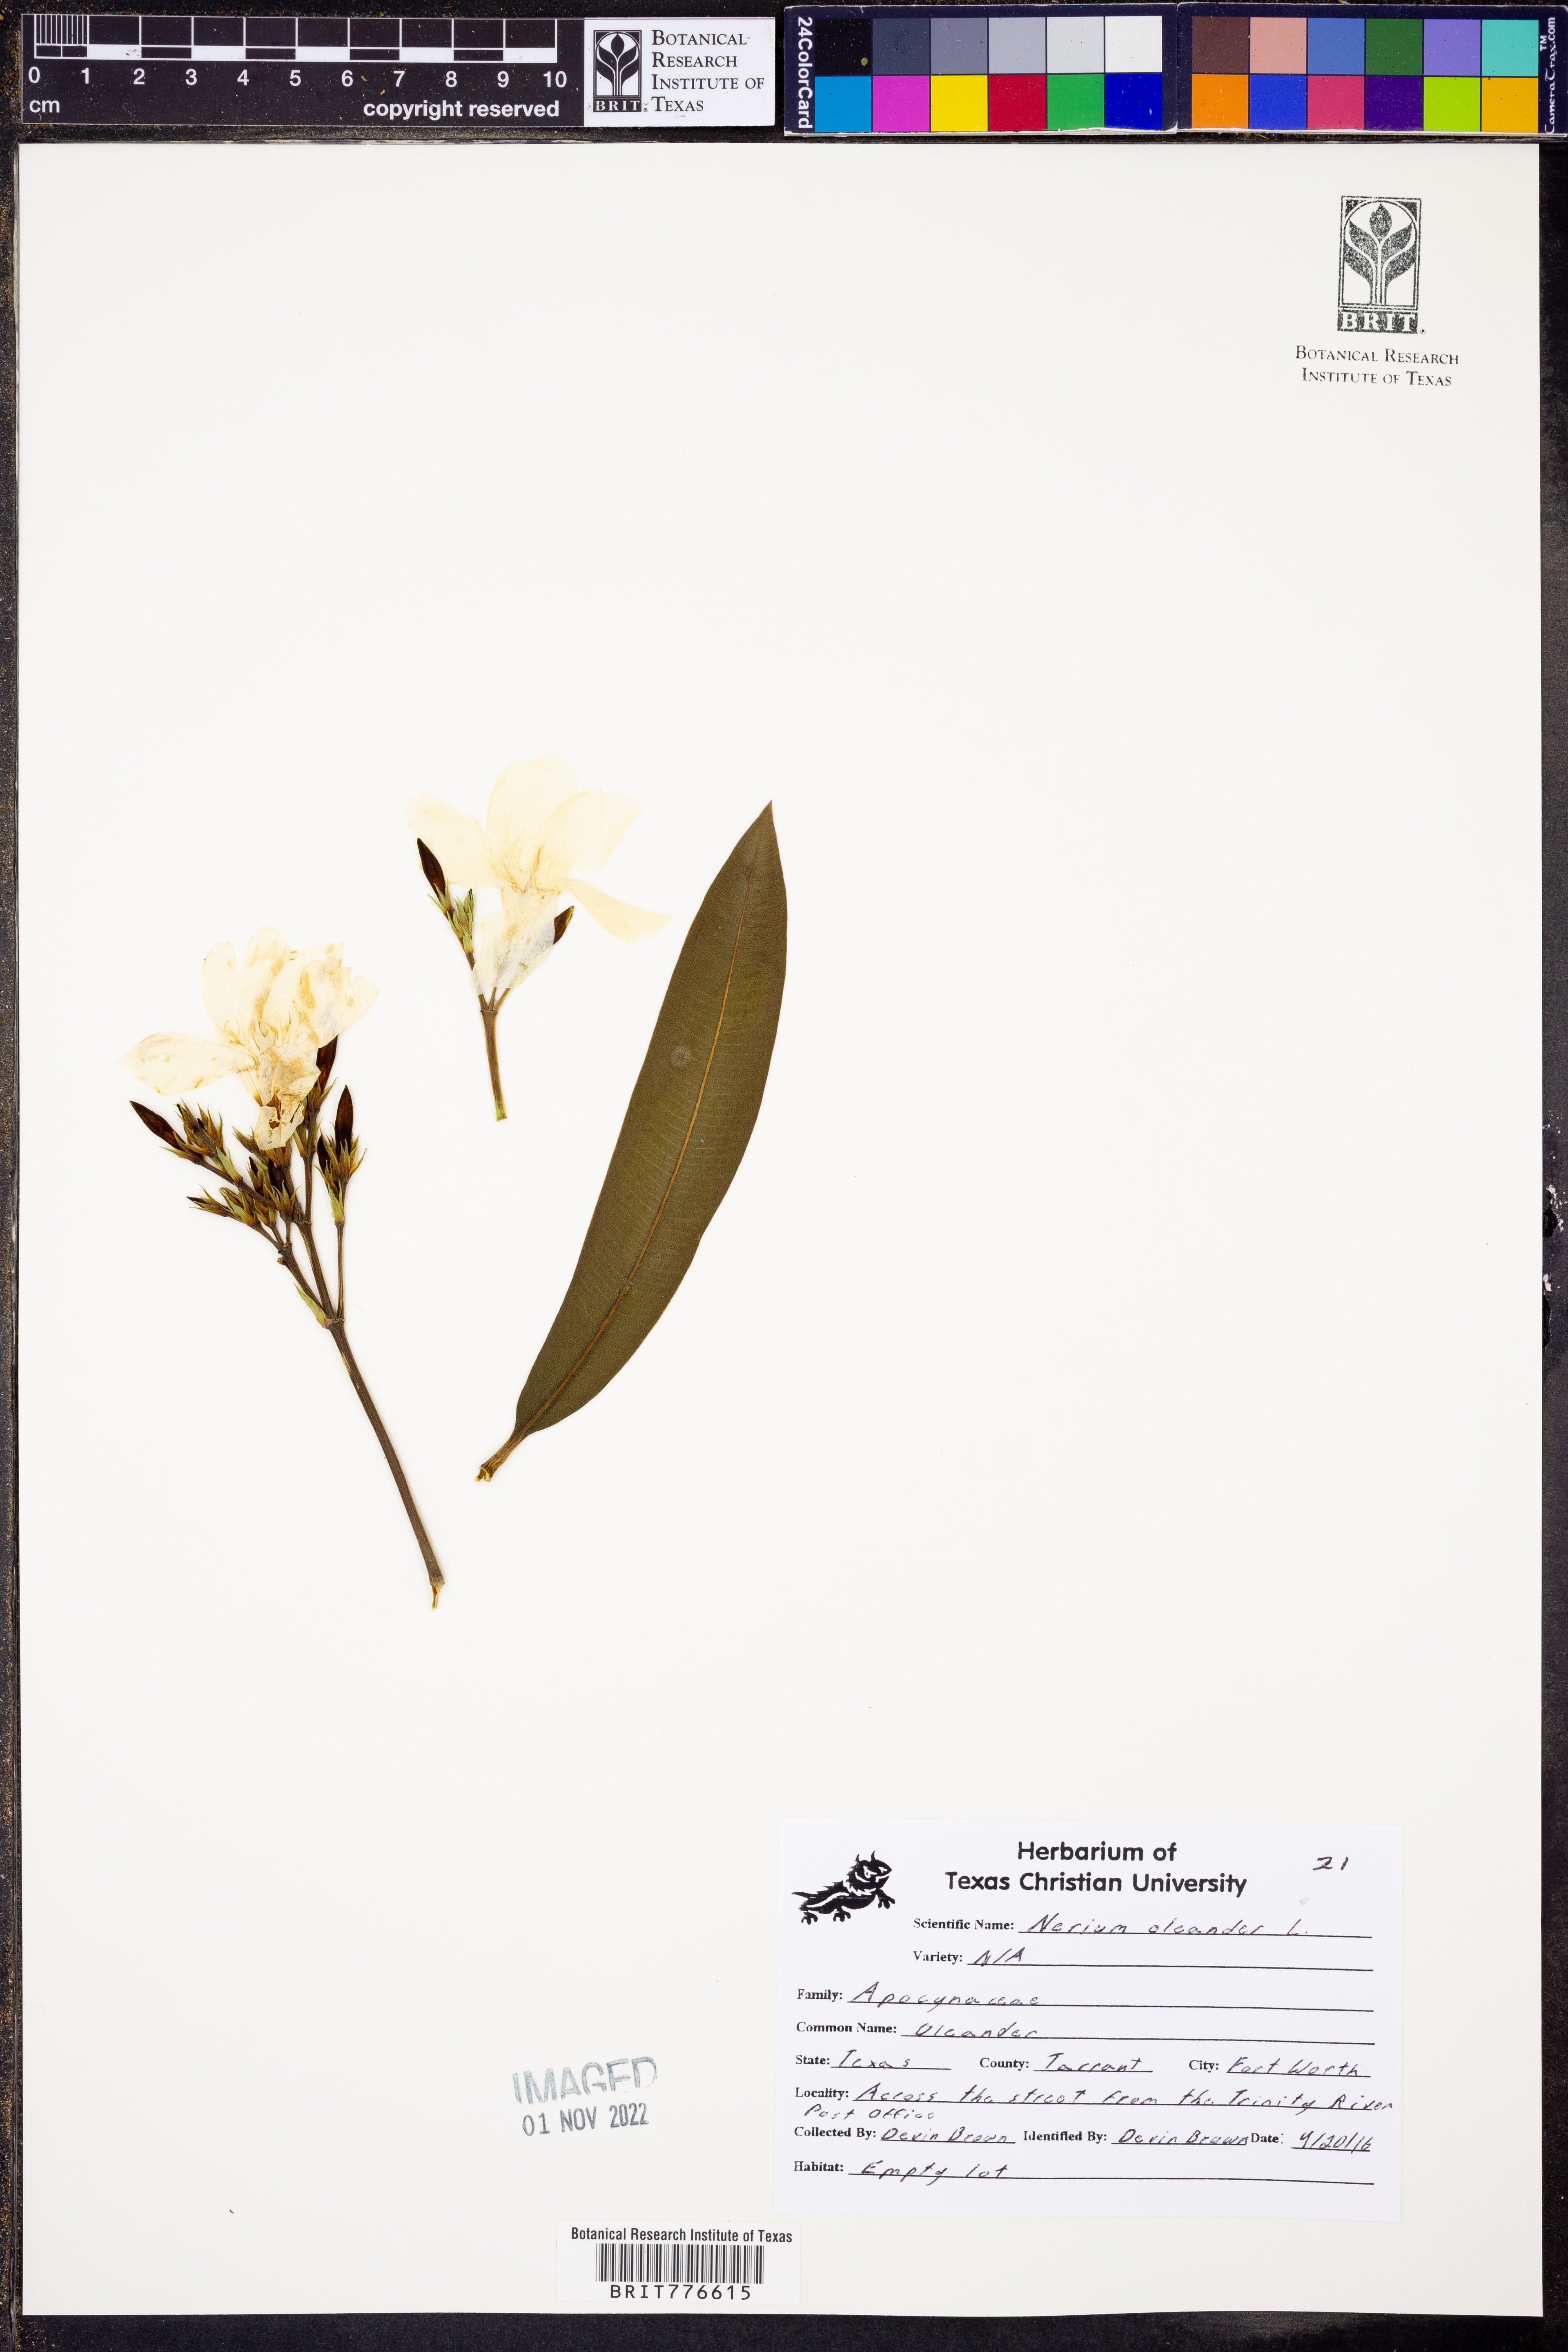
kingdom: Plantae
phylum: Tracheophyta
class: Magnoliopsida
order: Gentianales
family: Apocynaceae
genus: Nerium
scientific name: Nerium oleander
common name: Oleander
